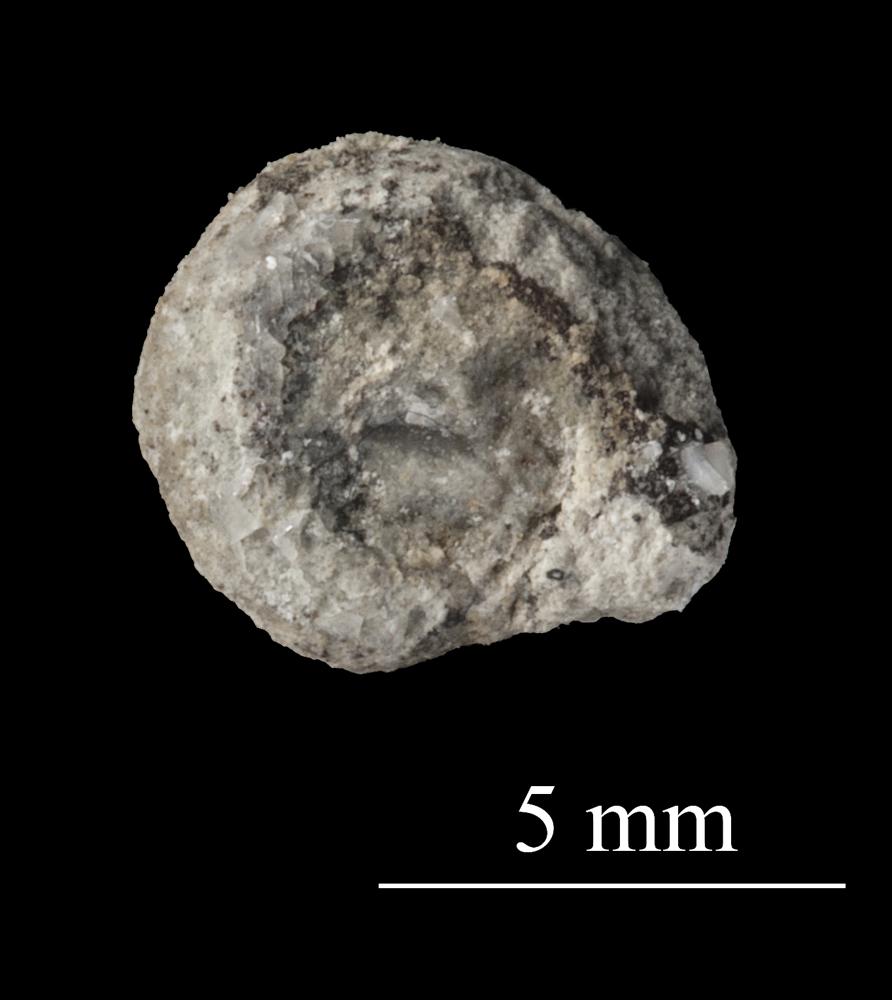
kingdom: Animalia
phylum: Mollusca
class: Gastropoda
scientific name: Gastropoda
